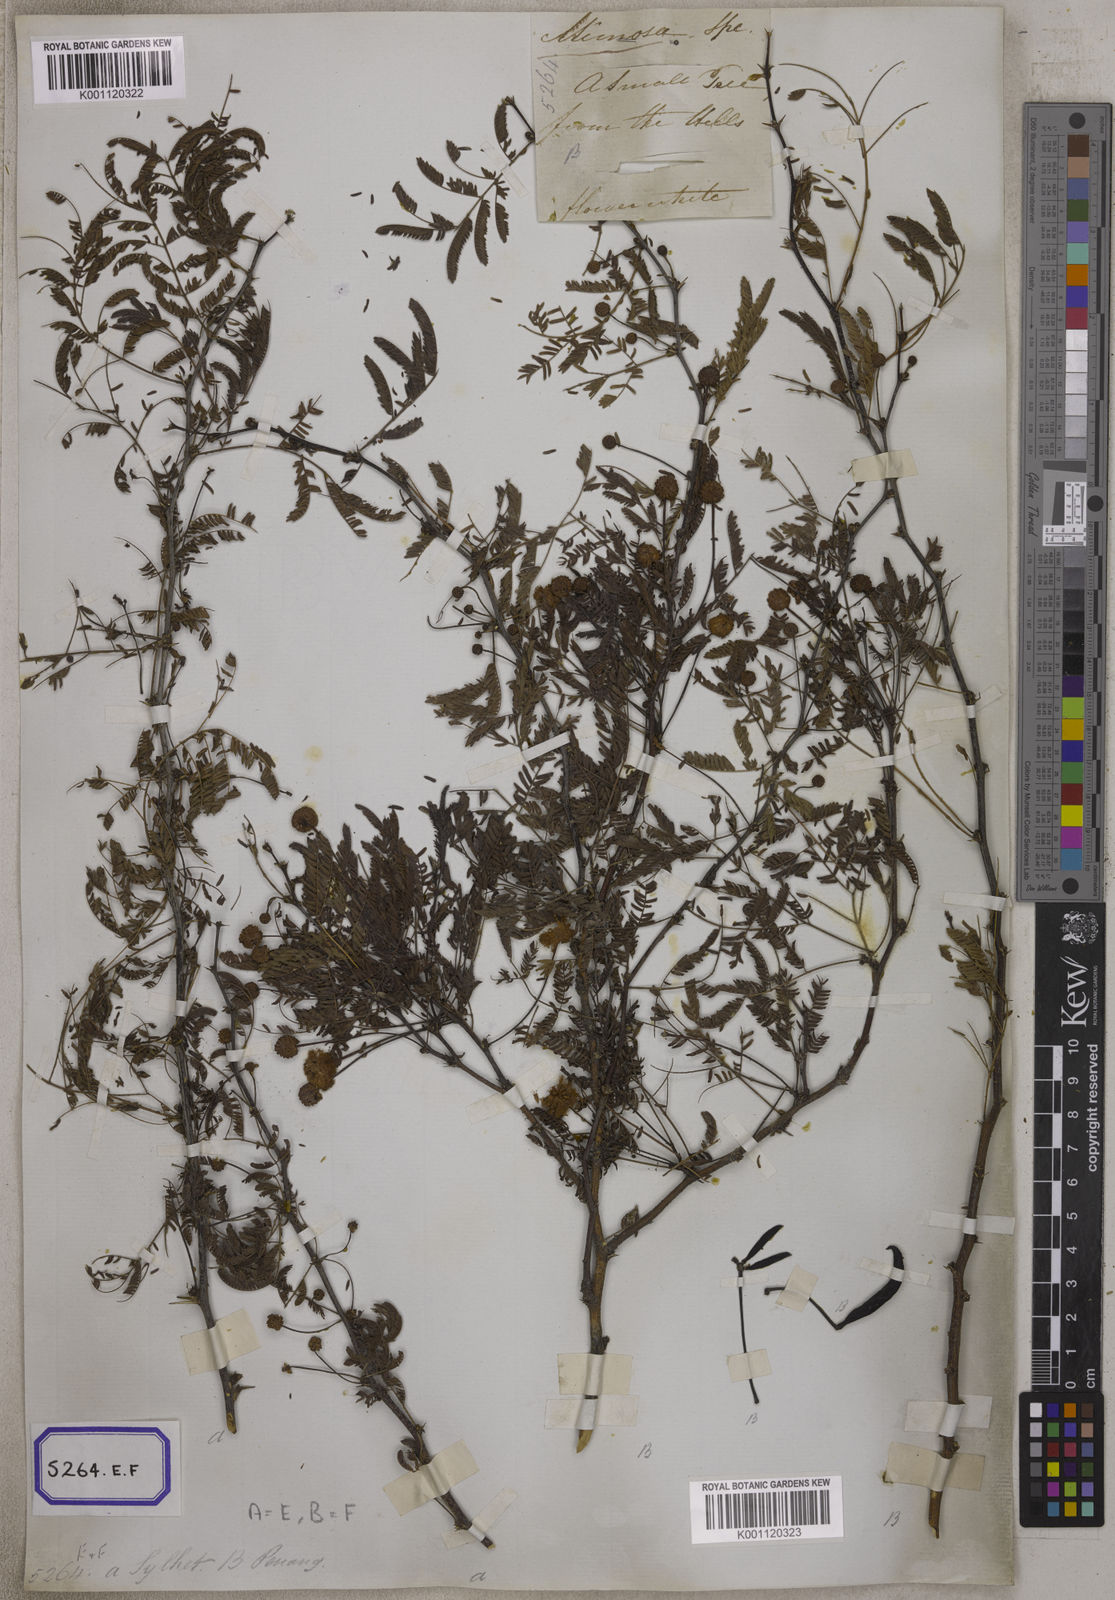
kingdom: Plantae
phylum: Tracheophyta
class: Magnoliopsida
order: Fabales
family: Fabaceae
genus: Vachellia
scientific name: Vachellia farnesiana
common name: Sweet acacia
